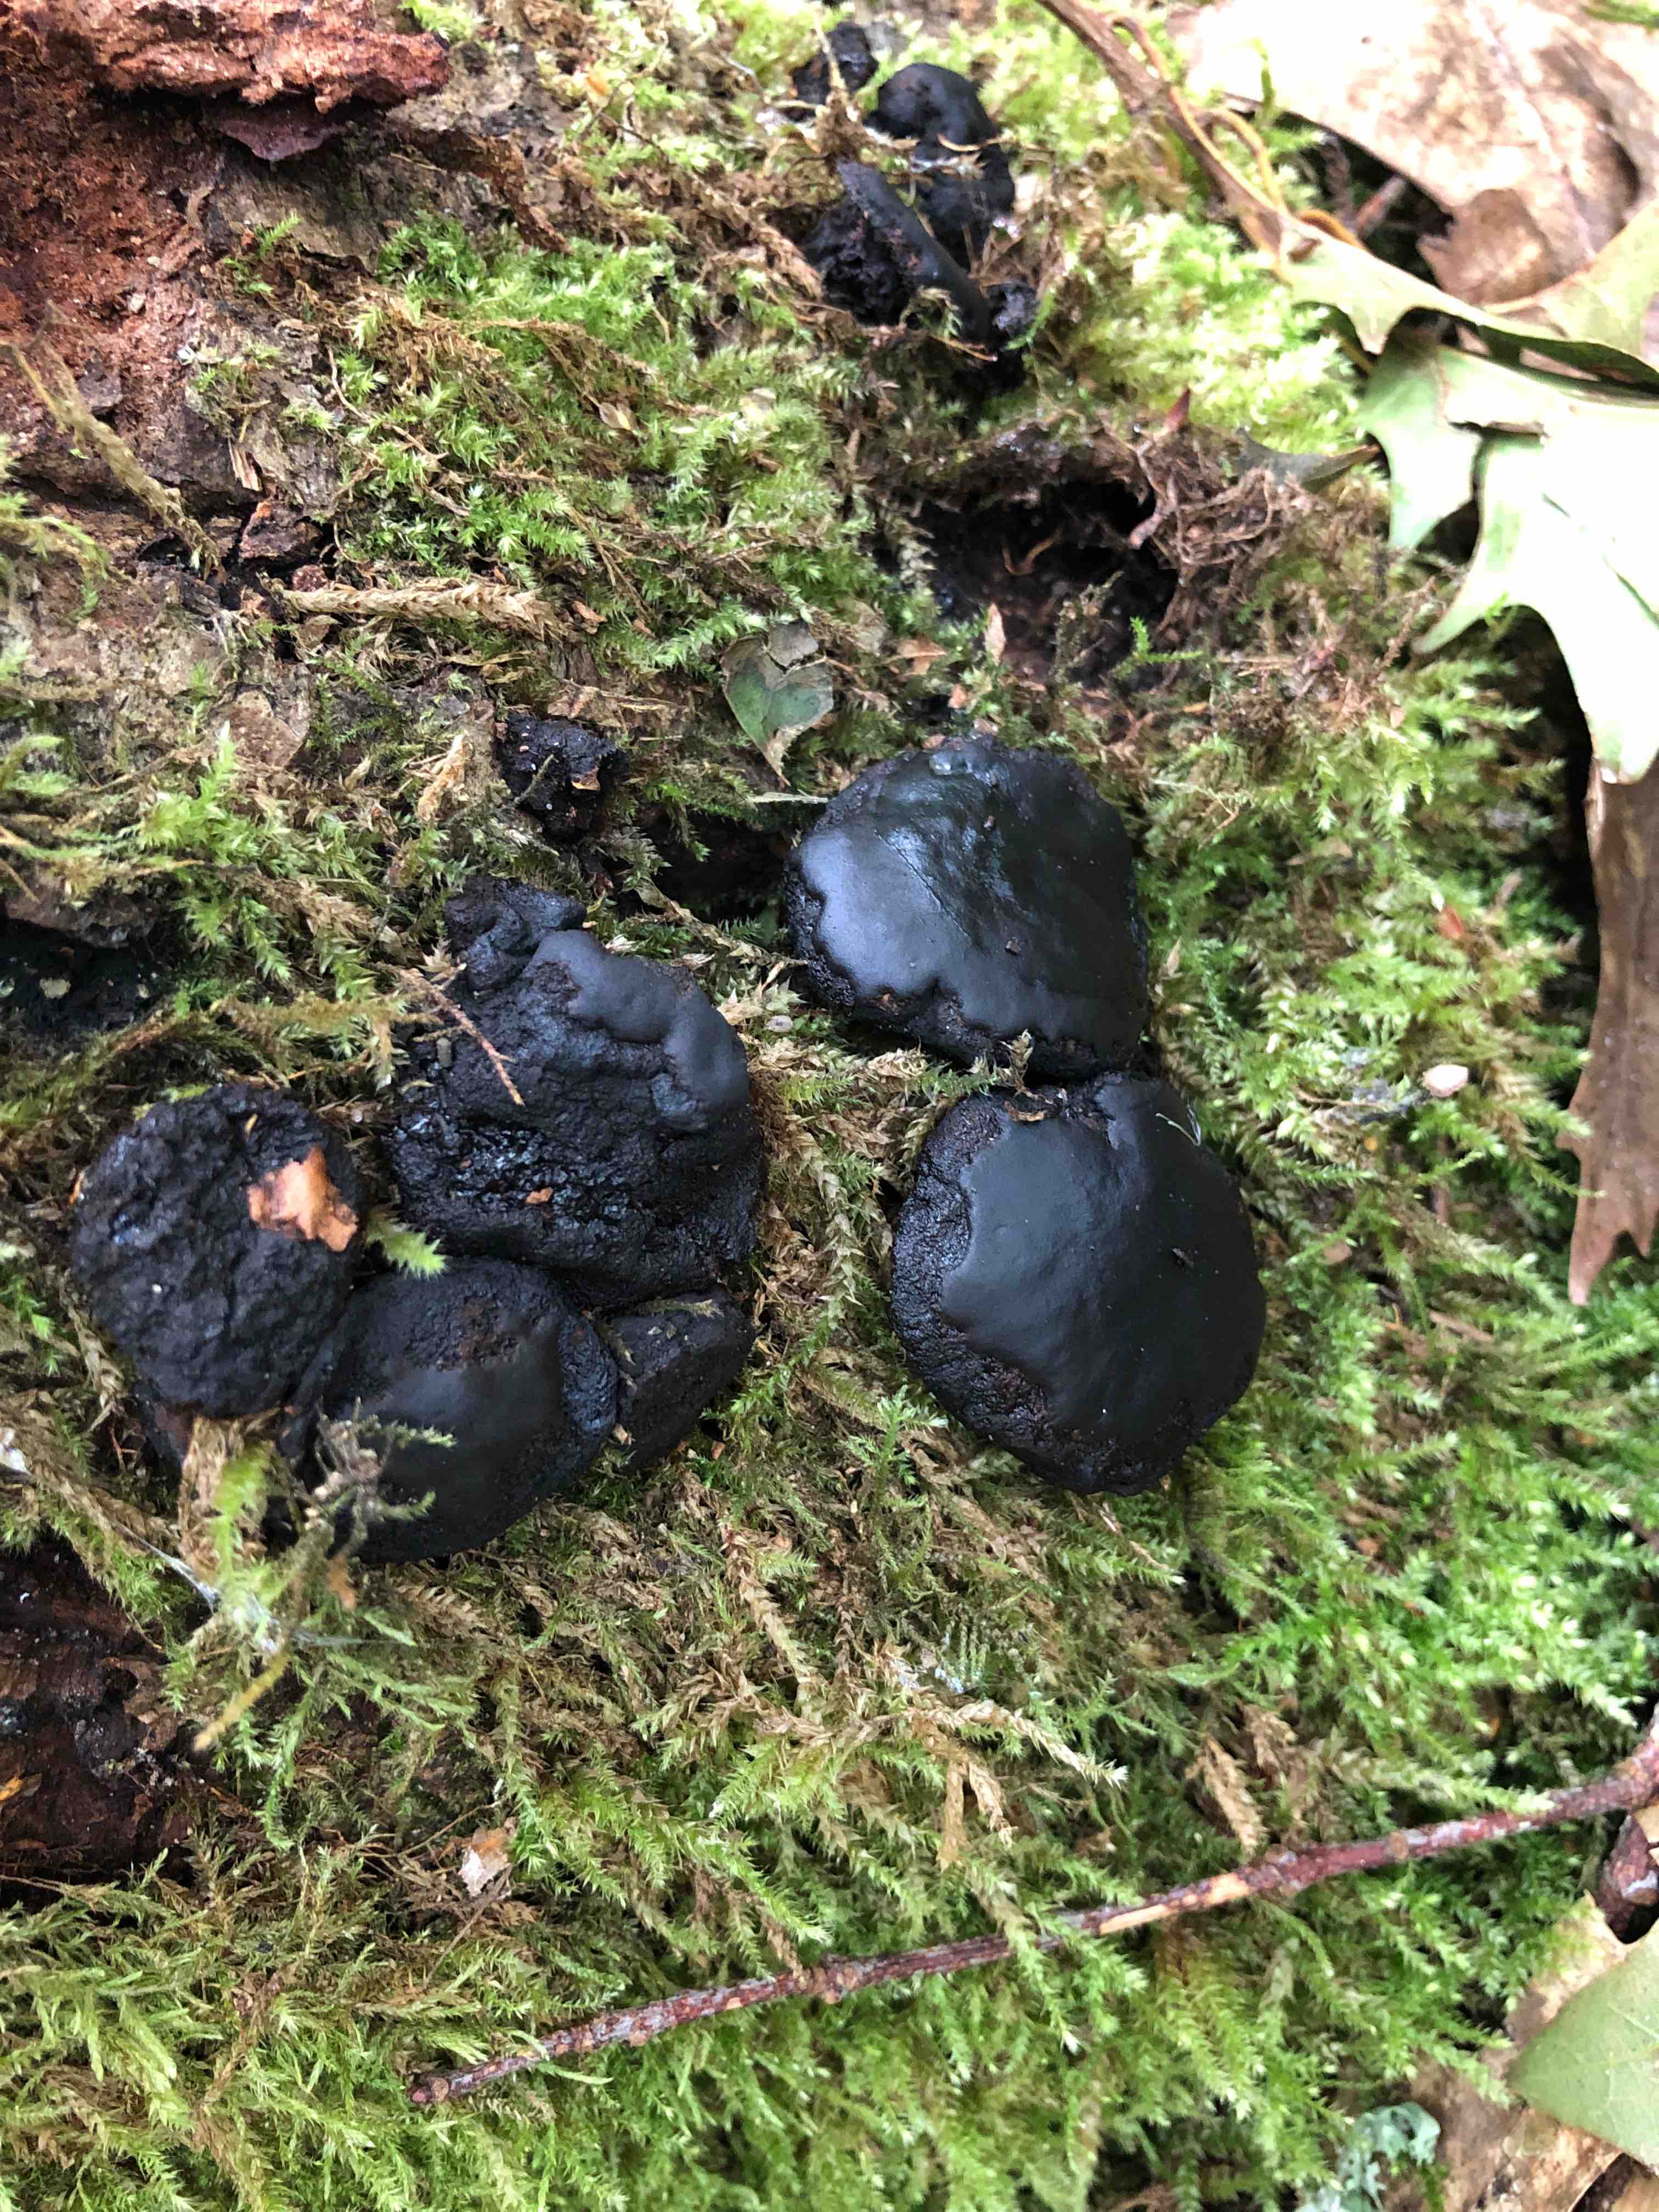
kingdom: Fungi
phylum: Ascomycota
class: Leotiomycetes
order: Phacidiales
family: Phacidiaceae
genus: Bulgaria
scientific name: Bulgaria inquinans
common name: afsmittende topsvamp
